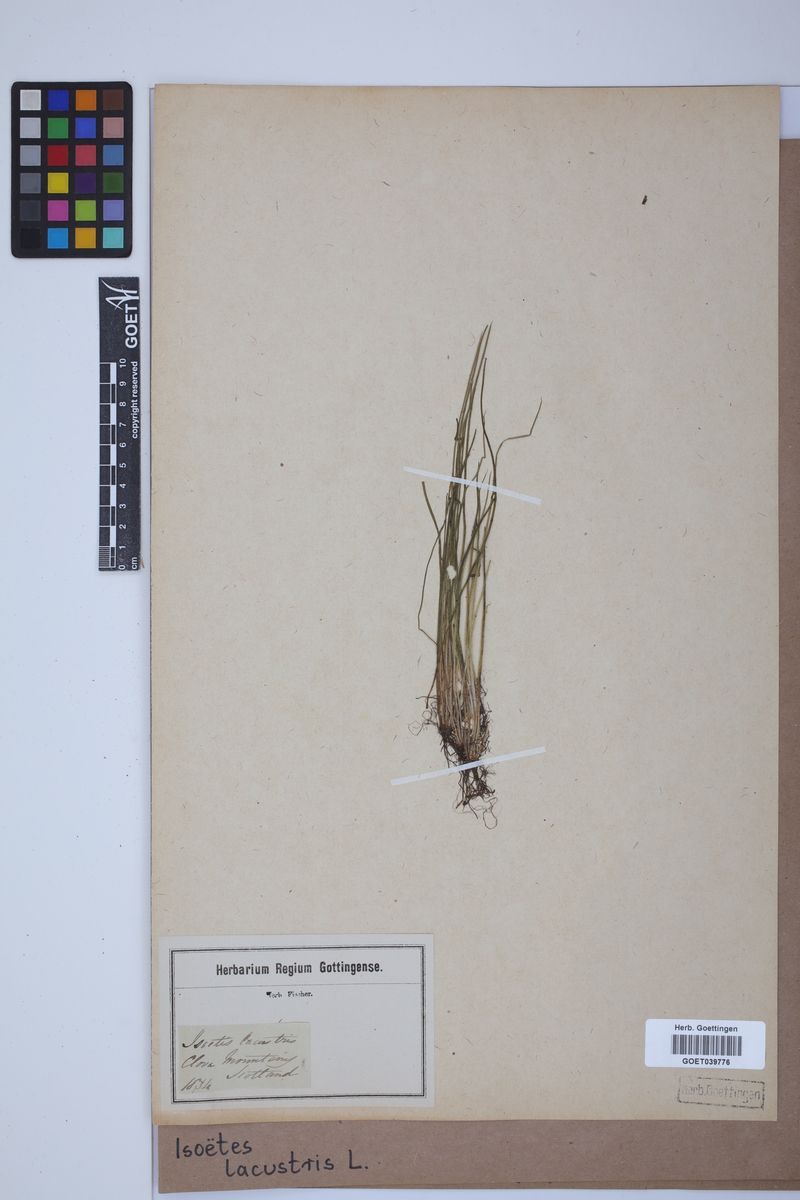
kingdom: Plantae
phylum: Tracheophyta
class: Lycopodiopsida
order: Isoetales
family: Isoetaceae
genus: Isoetes
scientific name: Isoetes lacustris
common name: Common quillwort
